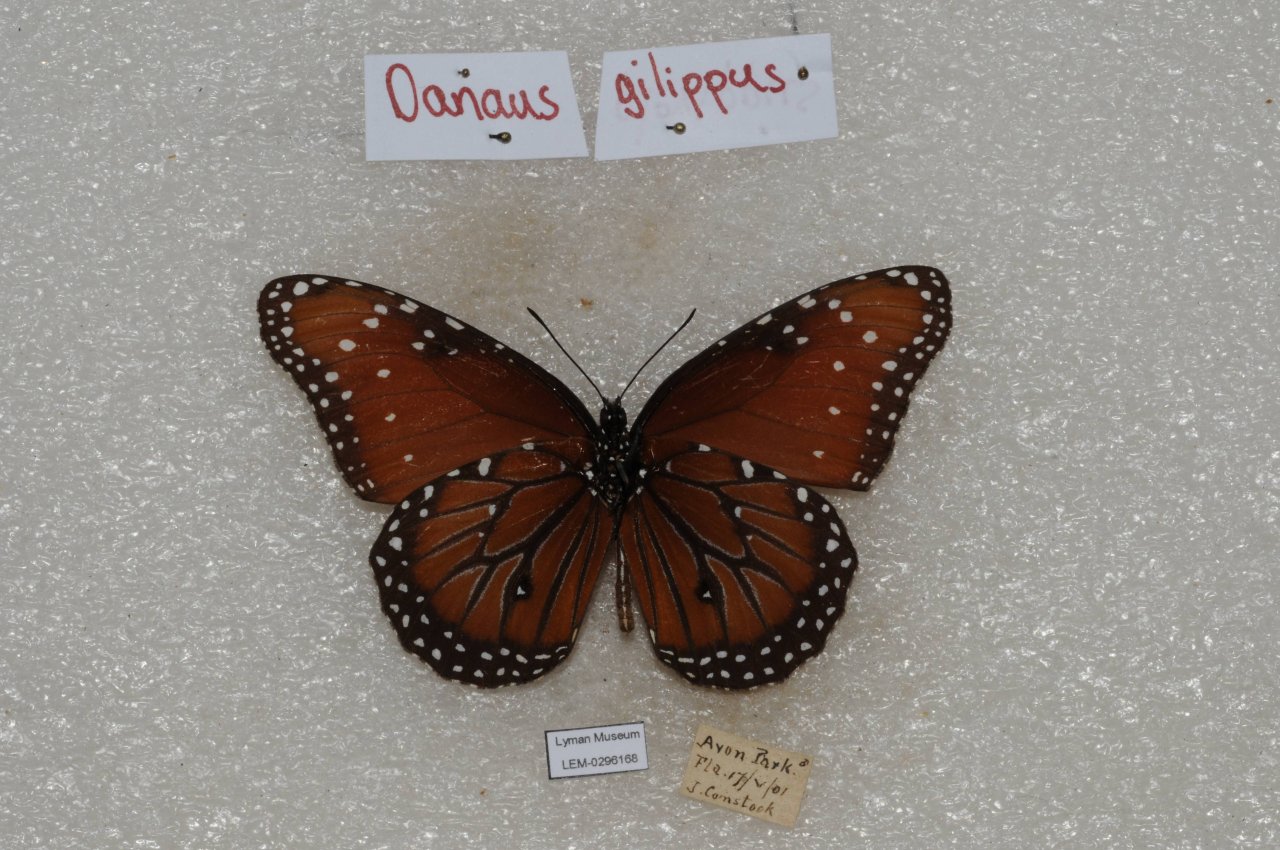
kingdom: Animalia
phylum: Arthropoda
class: Insecta
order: Lepidoptera
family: Nymphalidae
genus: Danaus
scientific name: Danaus gilippus
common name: Queen
